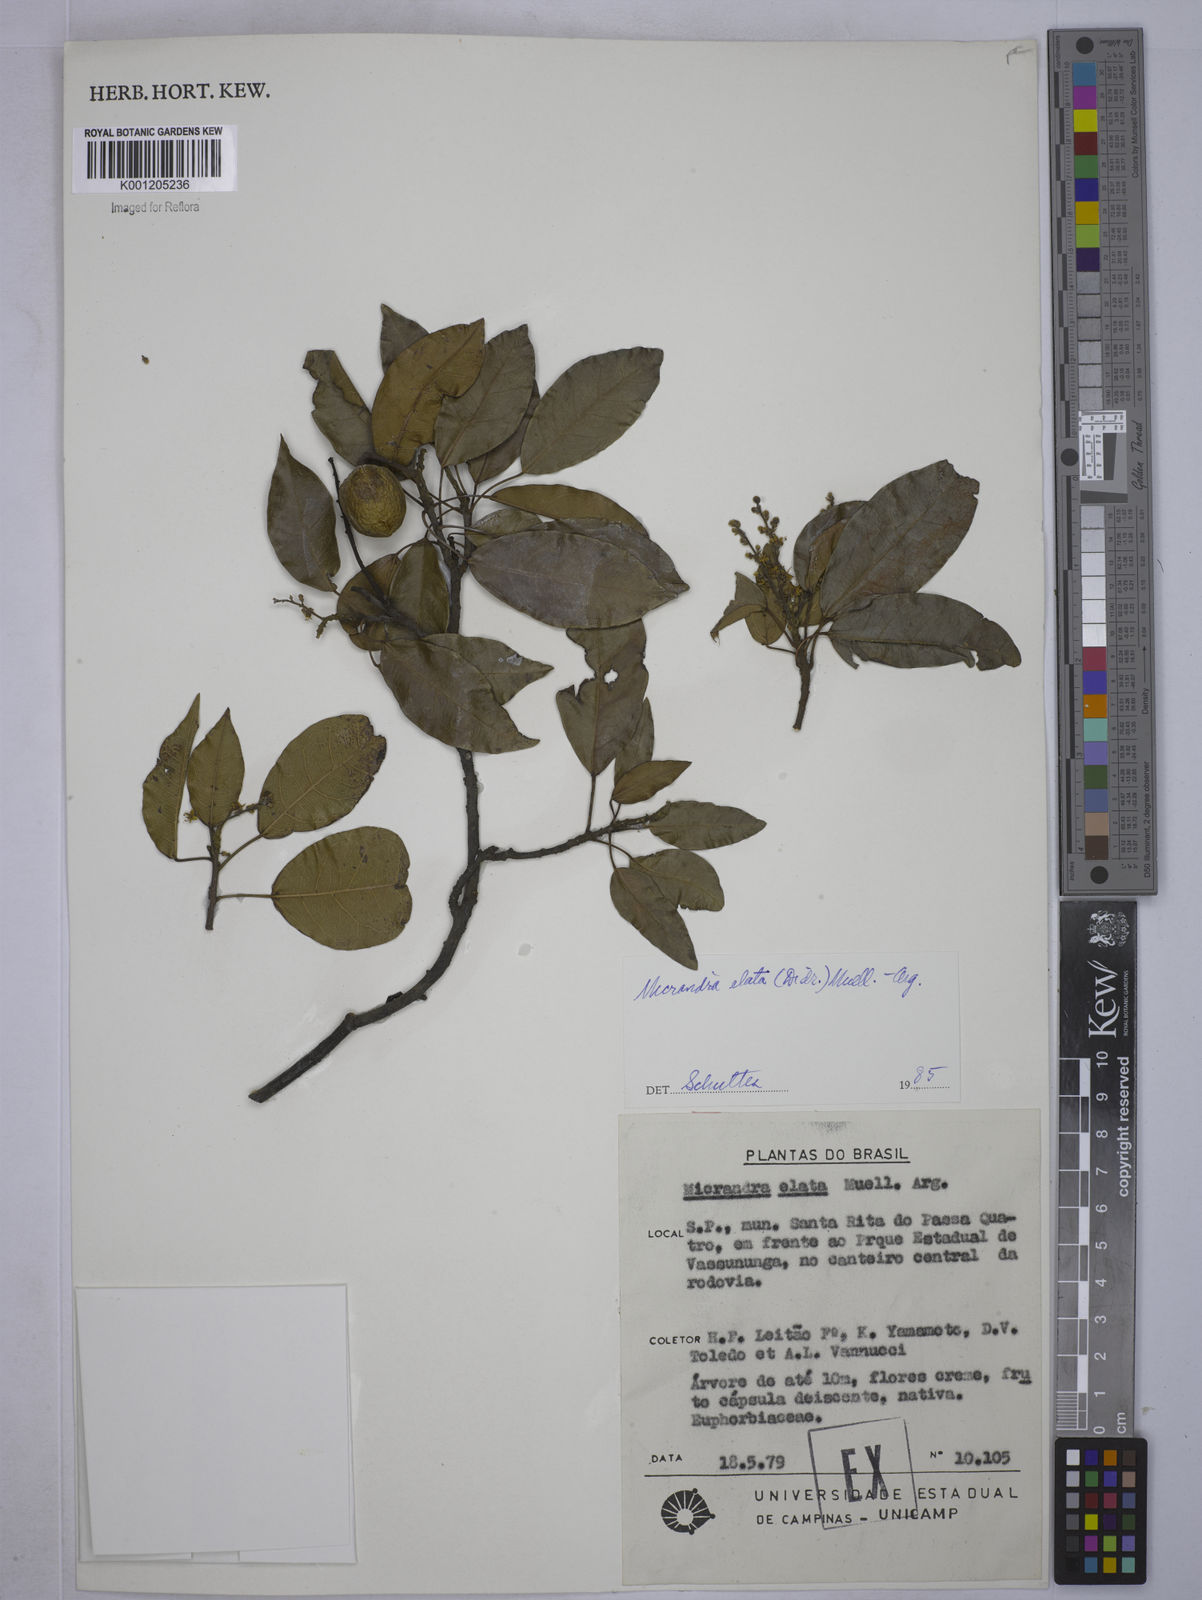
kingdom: Plantae
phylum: Tracheophyta
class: Magnoliopsida
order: Malpighiales
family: Euphorbiaceae
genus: Micrandra
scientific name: Micrandra
